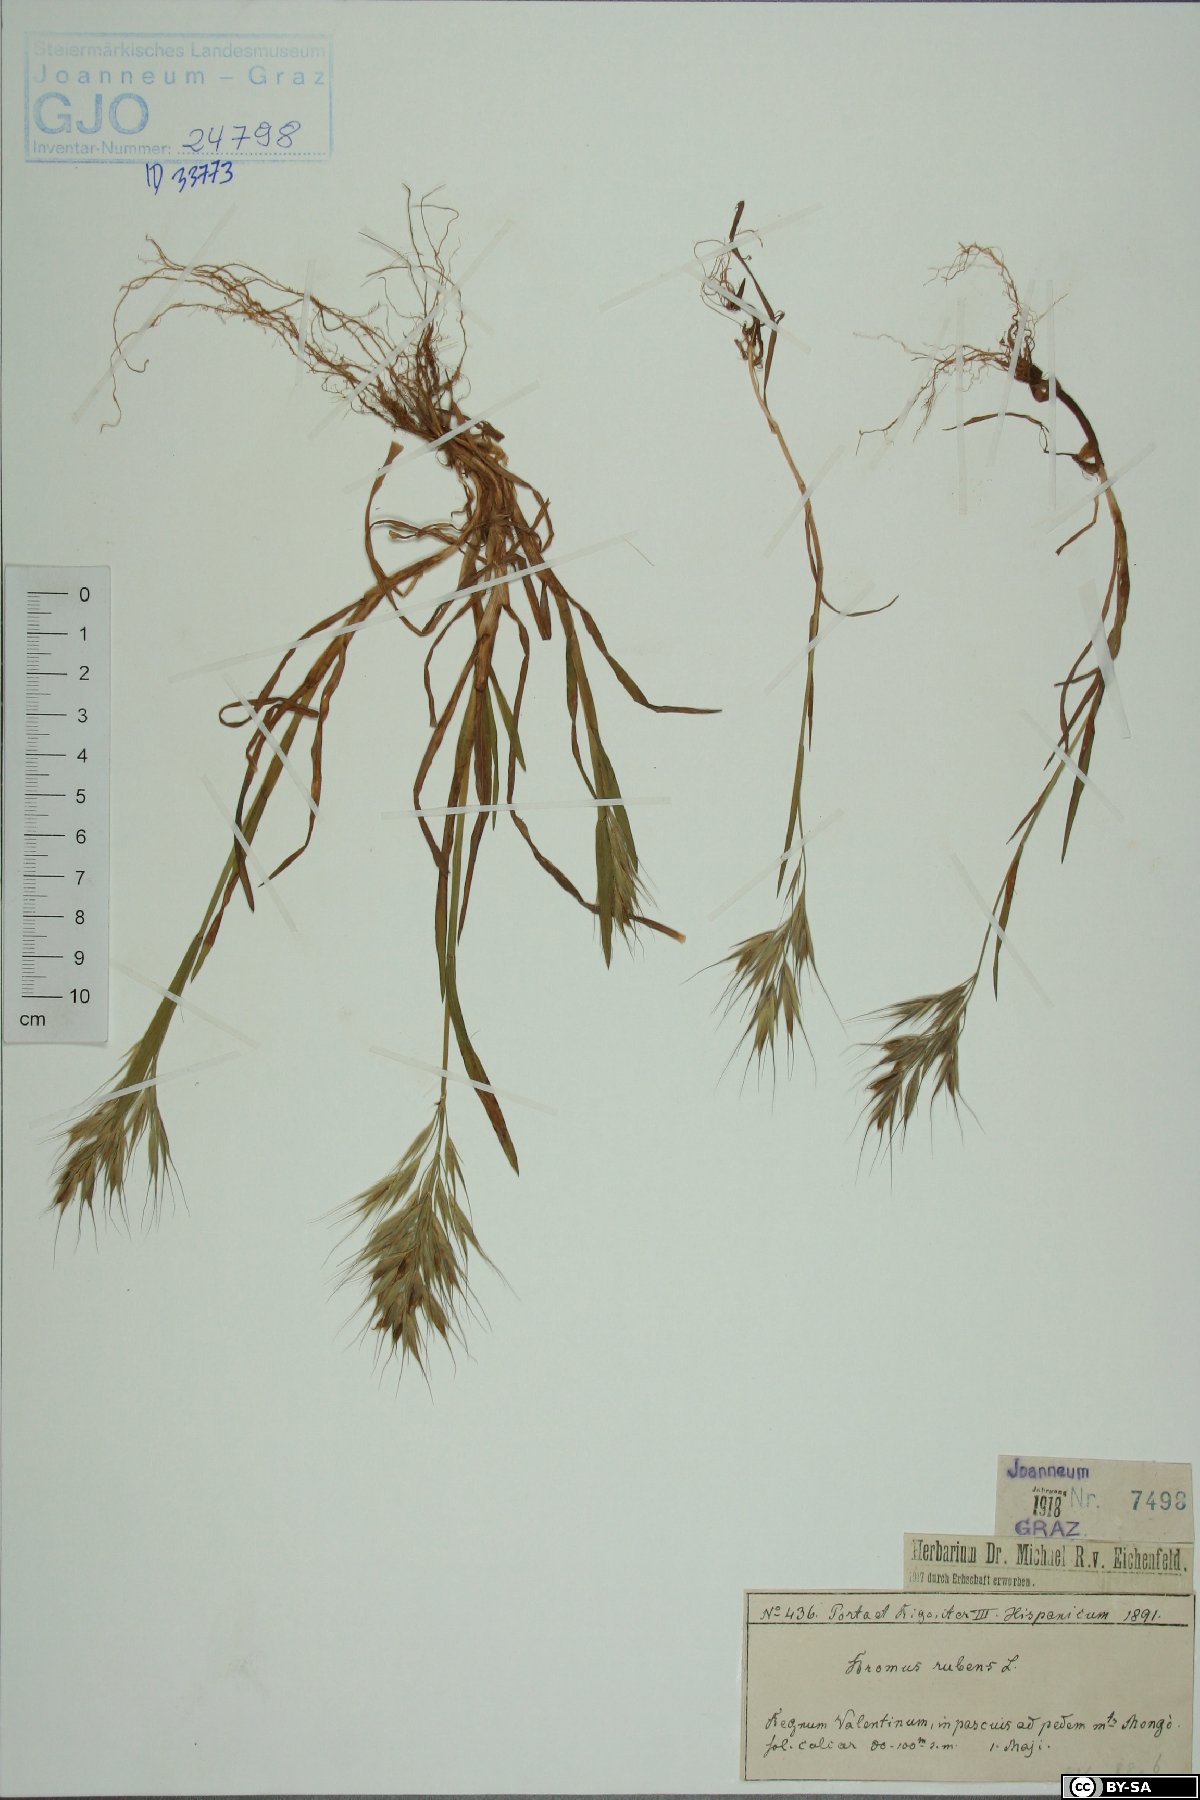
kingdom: Plantae
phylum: Tracheophyta
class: Liliopsida
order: Poales
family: Poaceae
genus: Bromus
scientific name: Bromus rubens
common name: Red brome
